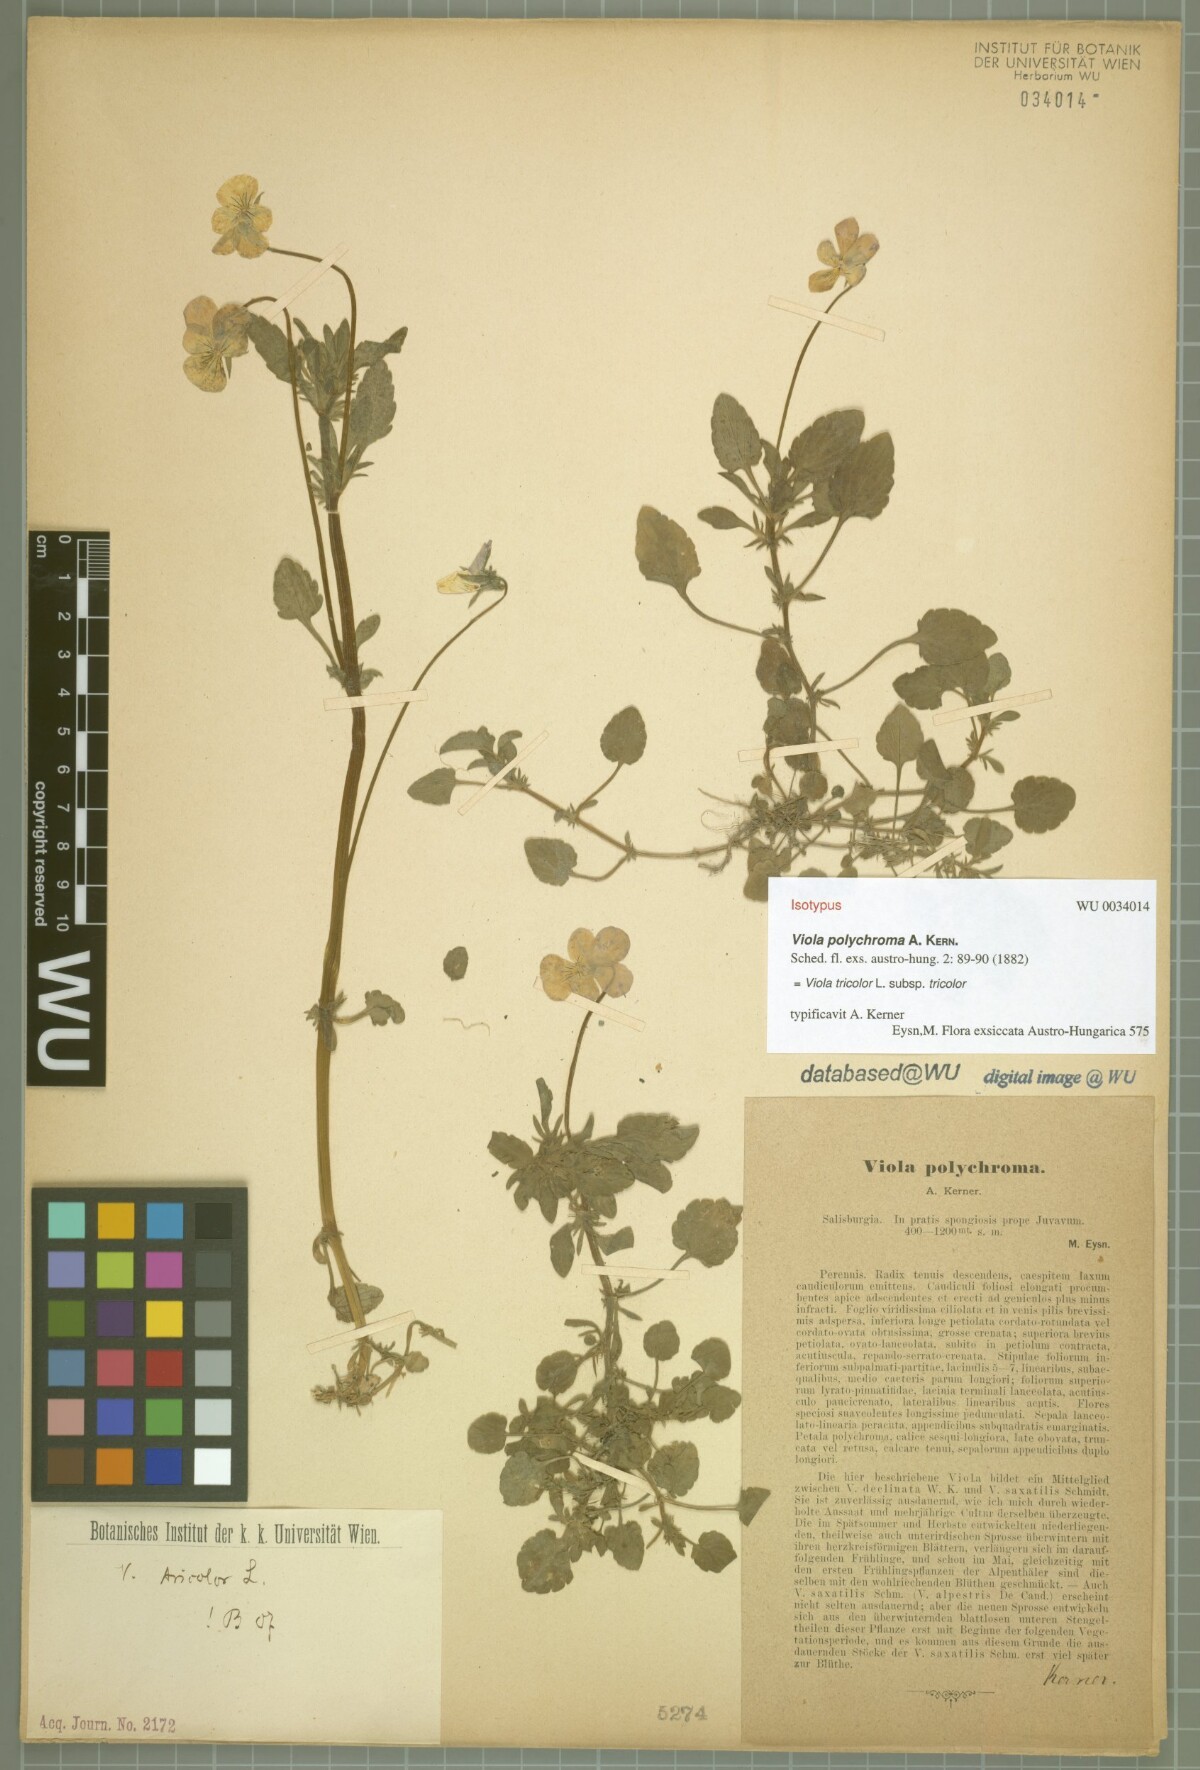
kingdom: Plantae
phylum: Tracheophyta
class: Magnoliopsida
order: Malpighiales
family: Violaceae
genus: Viola
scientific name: Viola tricolor
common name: Pansy
